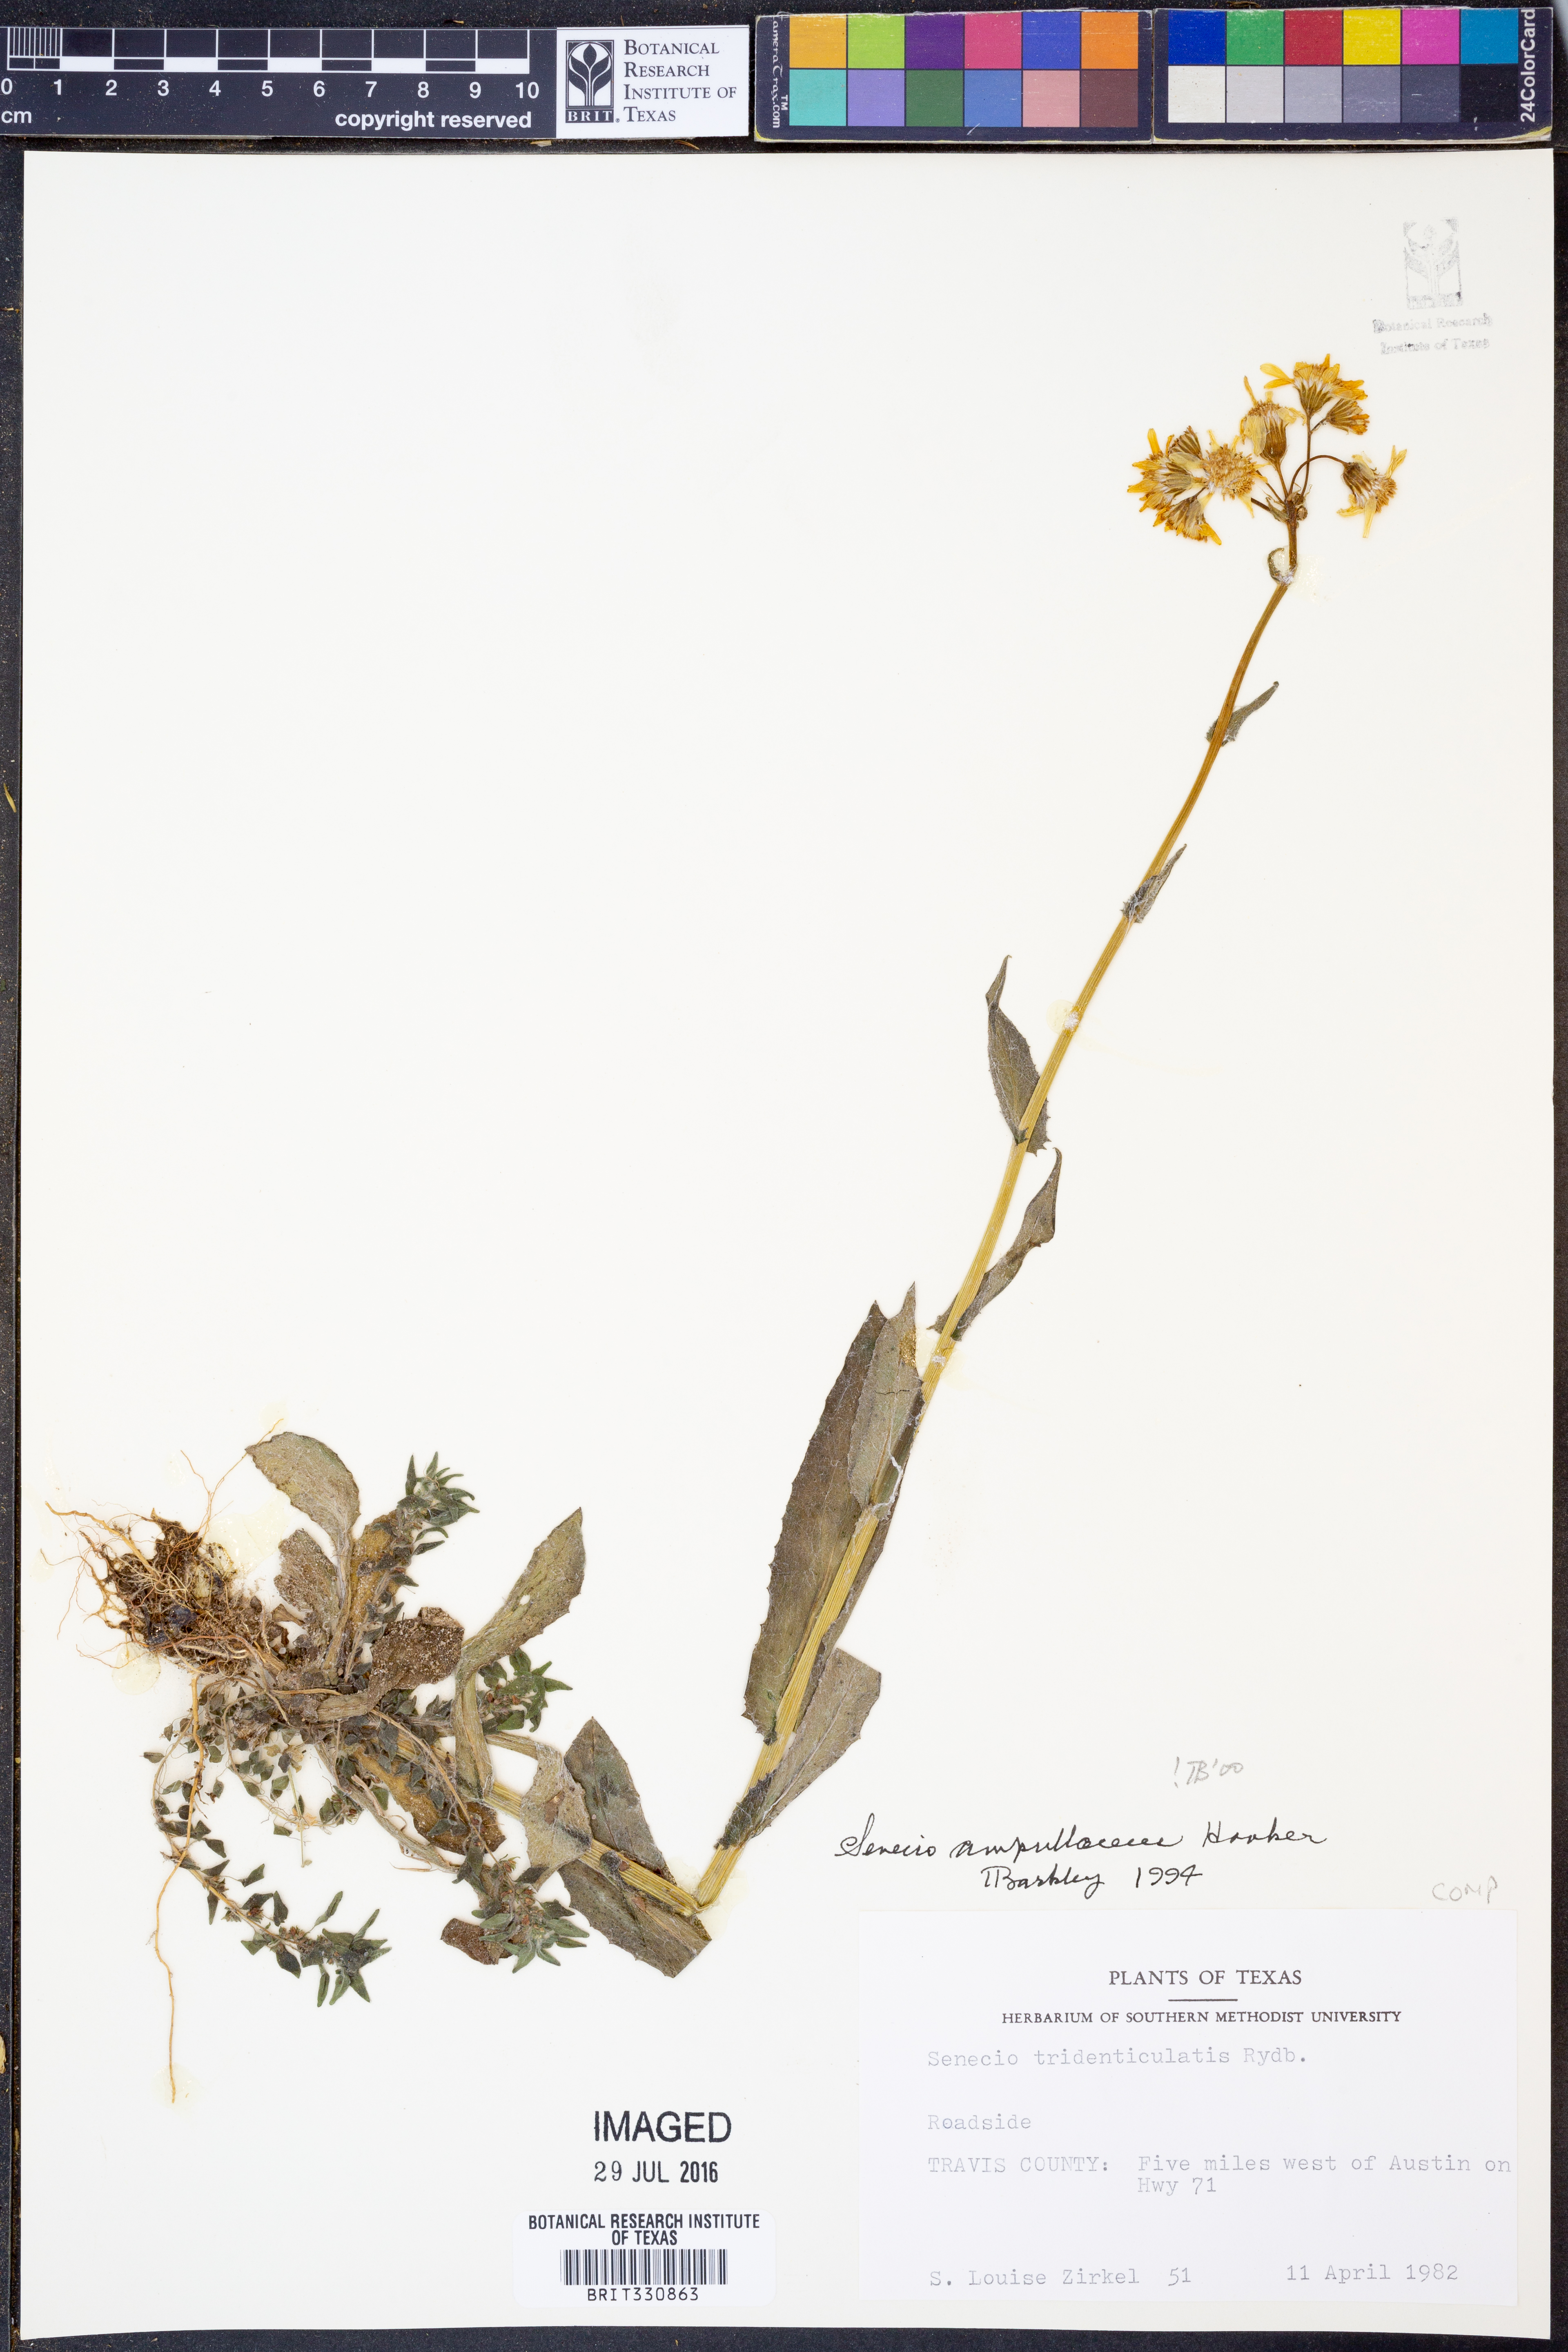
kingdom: Plantae
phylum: Tracheophyta
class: Magnoliopsida
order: Asterales
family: Asteraceae
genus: Senecio
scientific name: Senecio ampullaceus
